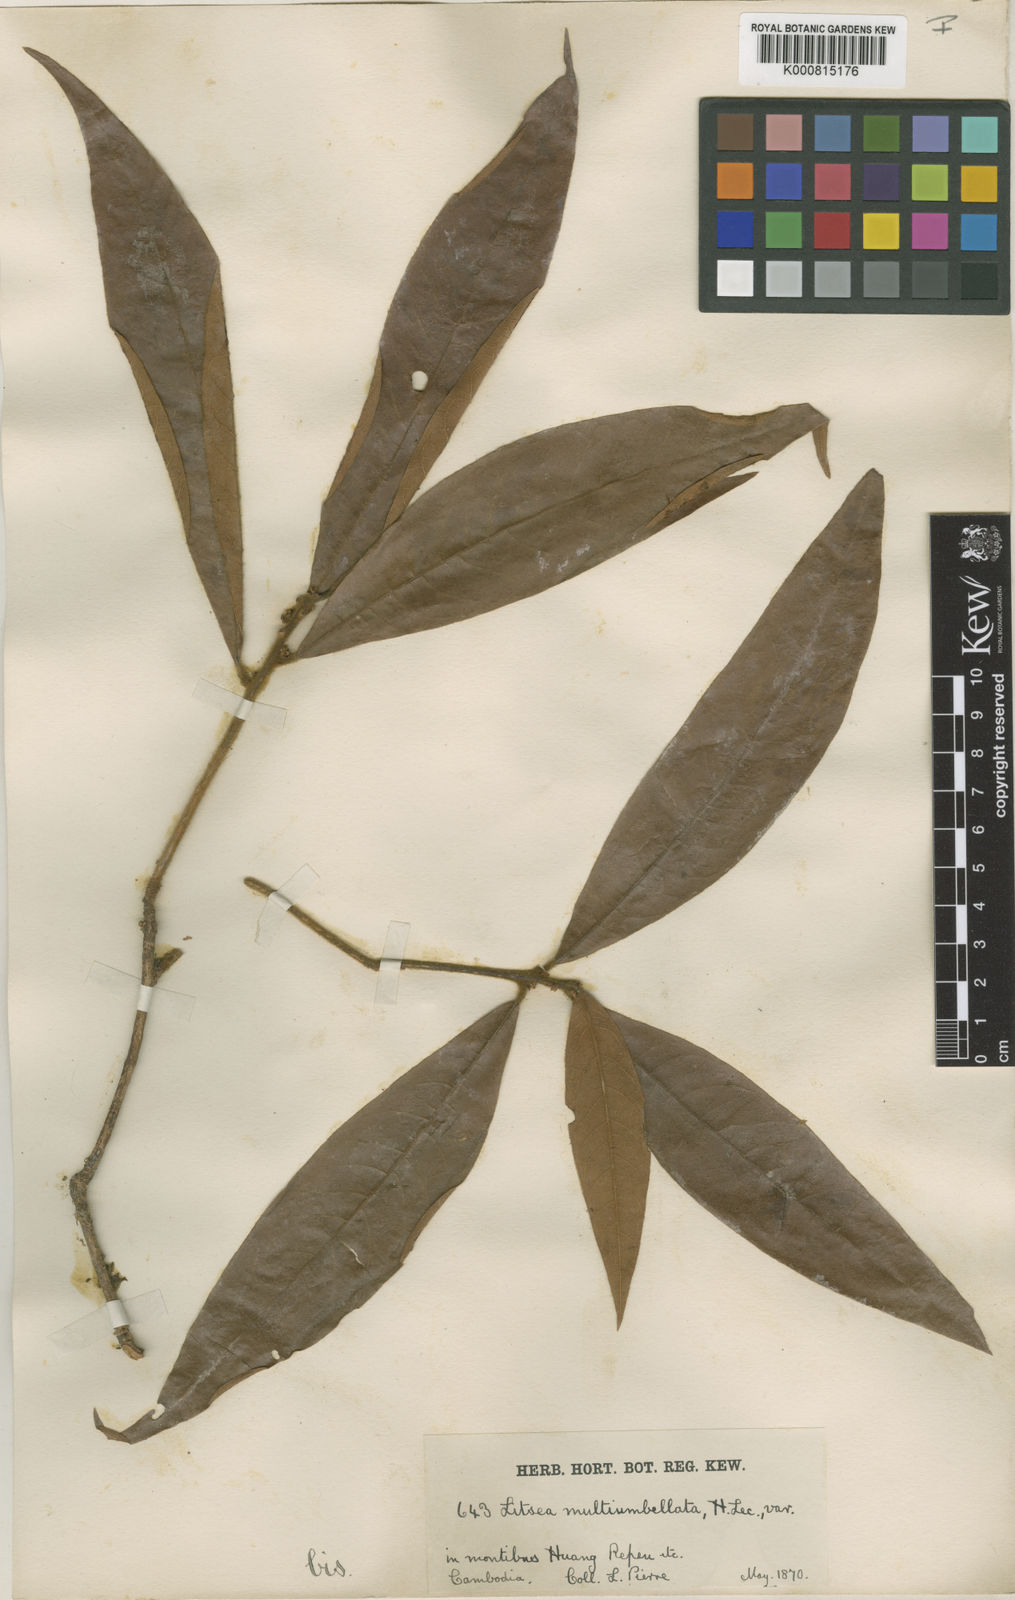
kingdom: Plantae
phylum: Tracheophyta
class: Magnoliopsida
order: Laurales
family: Lauraceae
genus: Litsea
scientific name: Litsea verticillata
